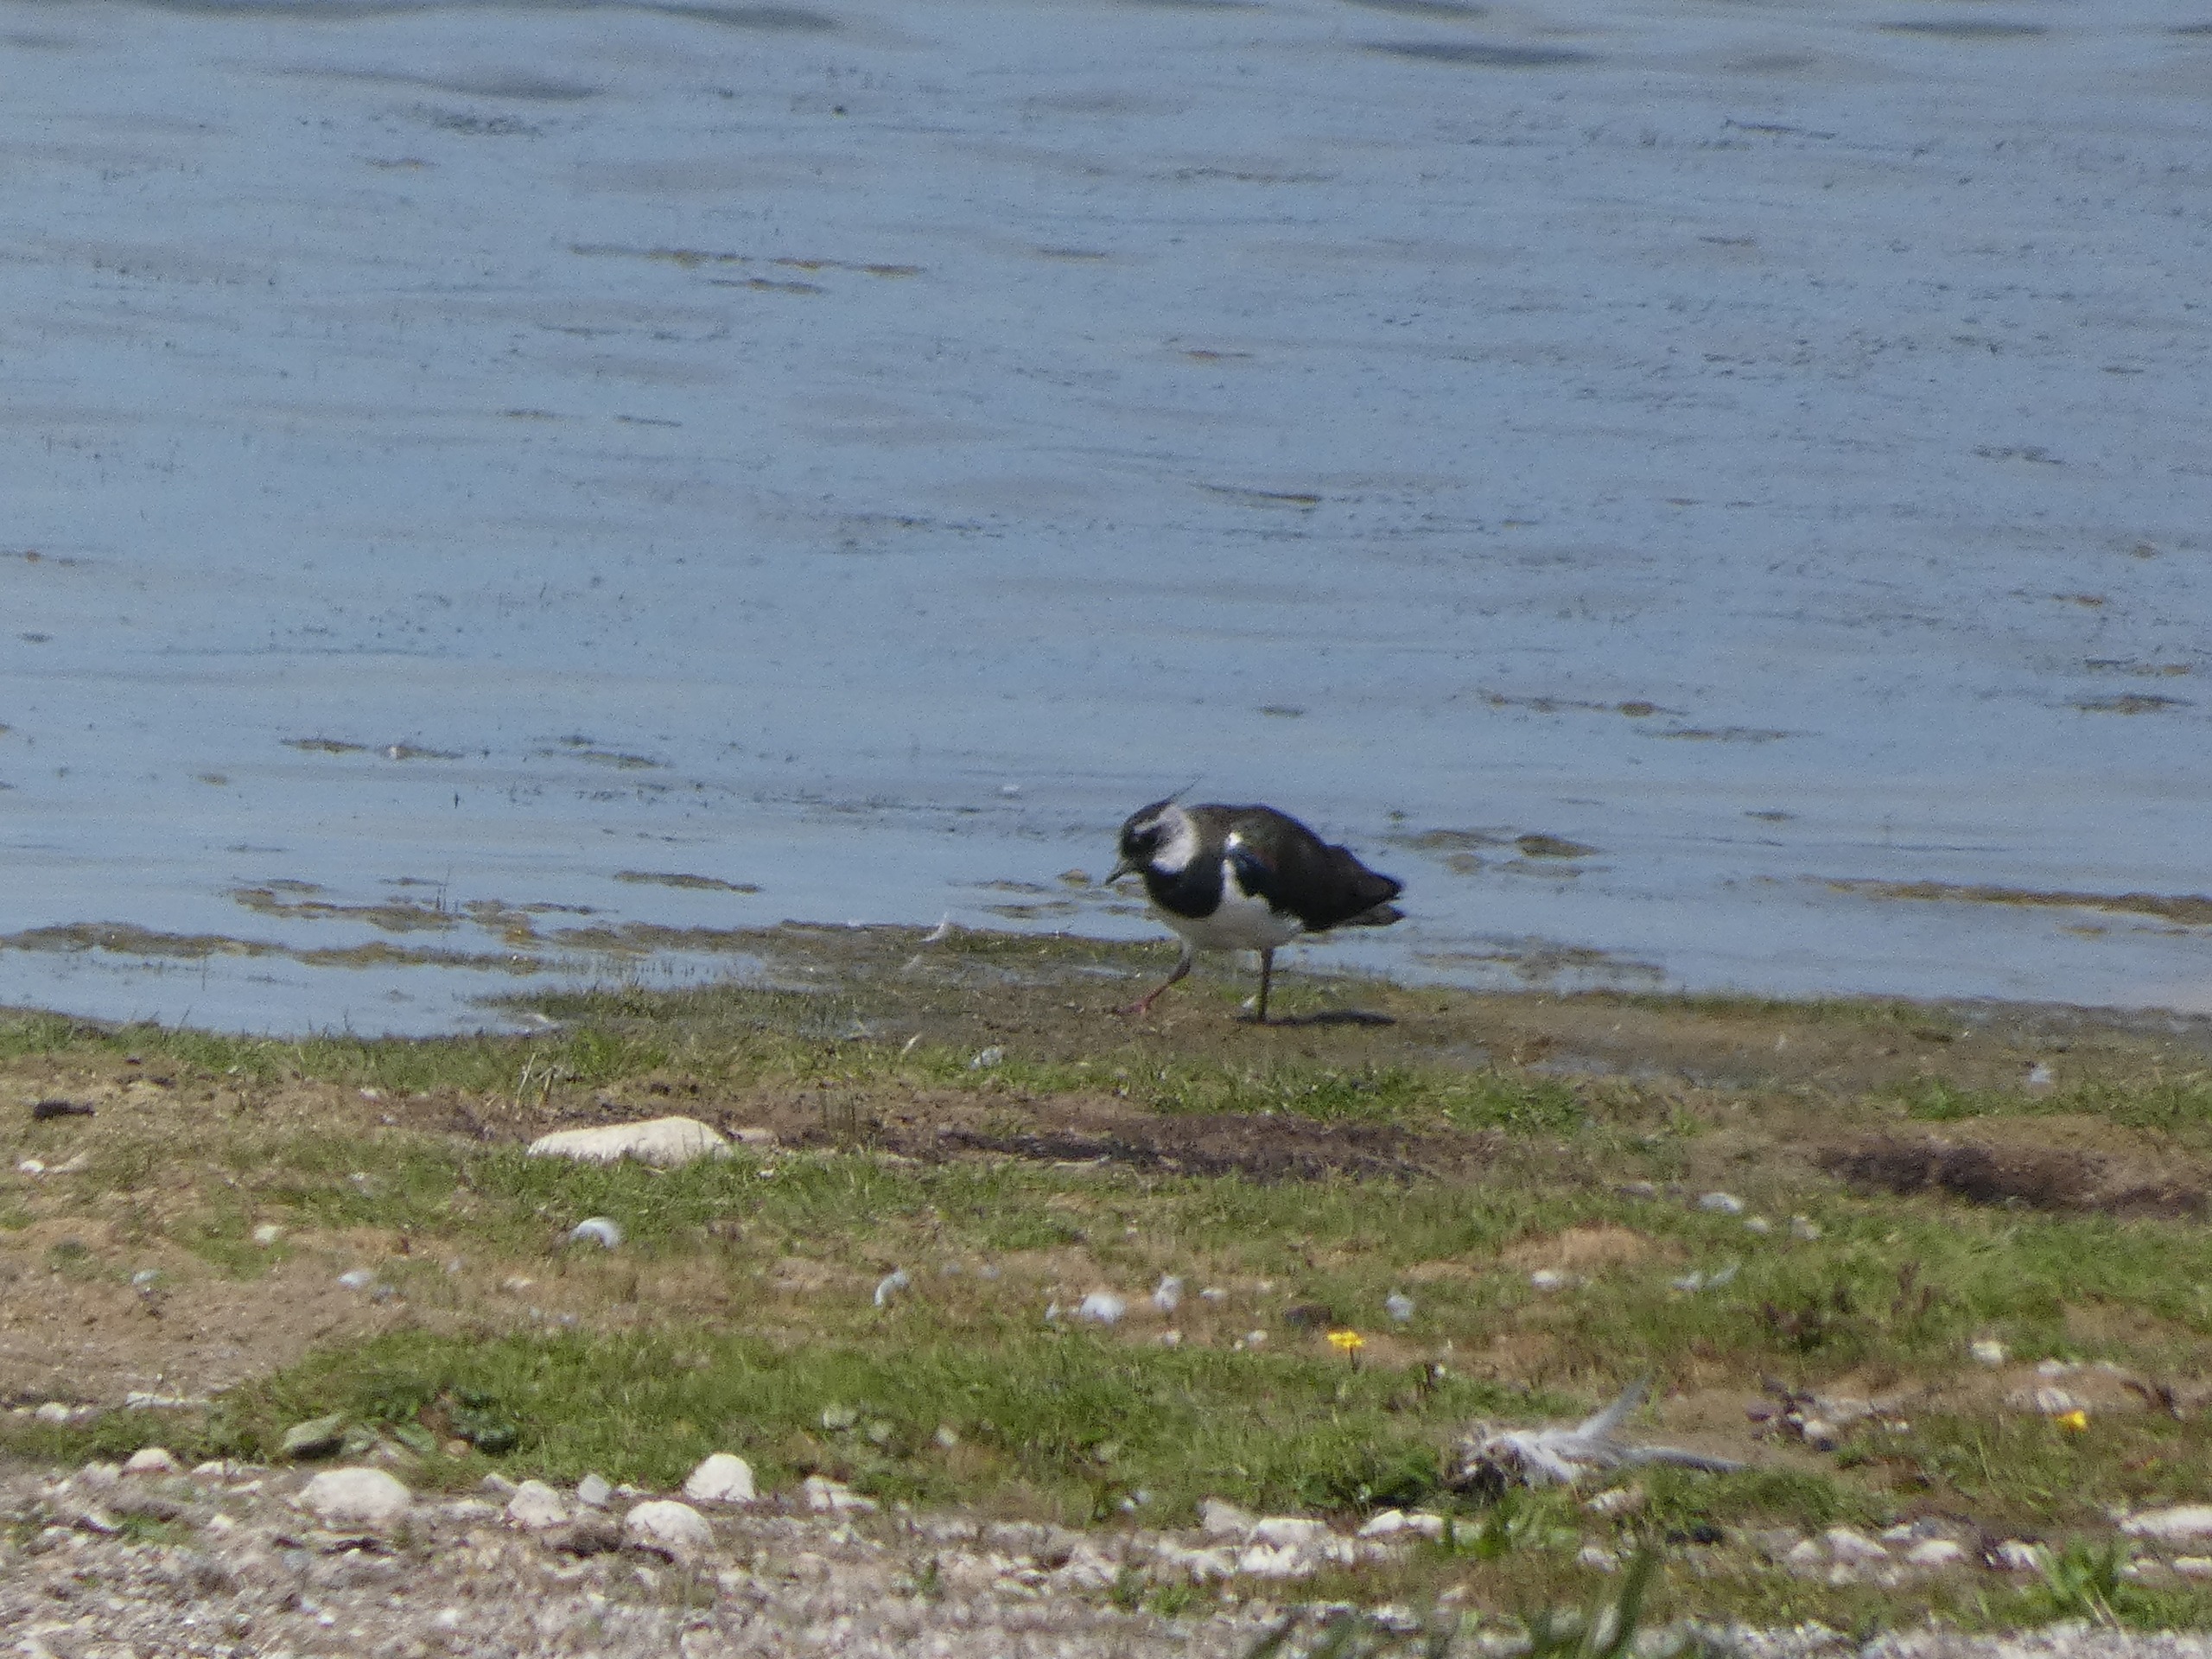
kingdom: Animalia
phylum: Chordata
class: Aves
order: Charadriiformes
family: Charadriidae
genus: Vanellus
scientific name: Vanellus vanellus
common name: Vibe
